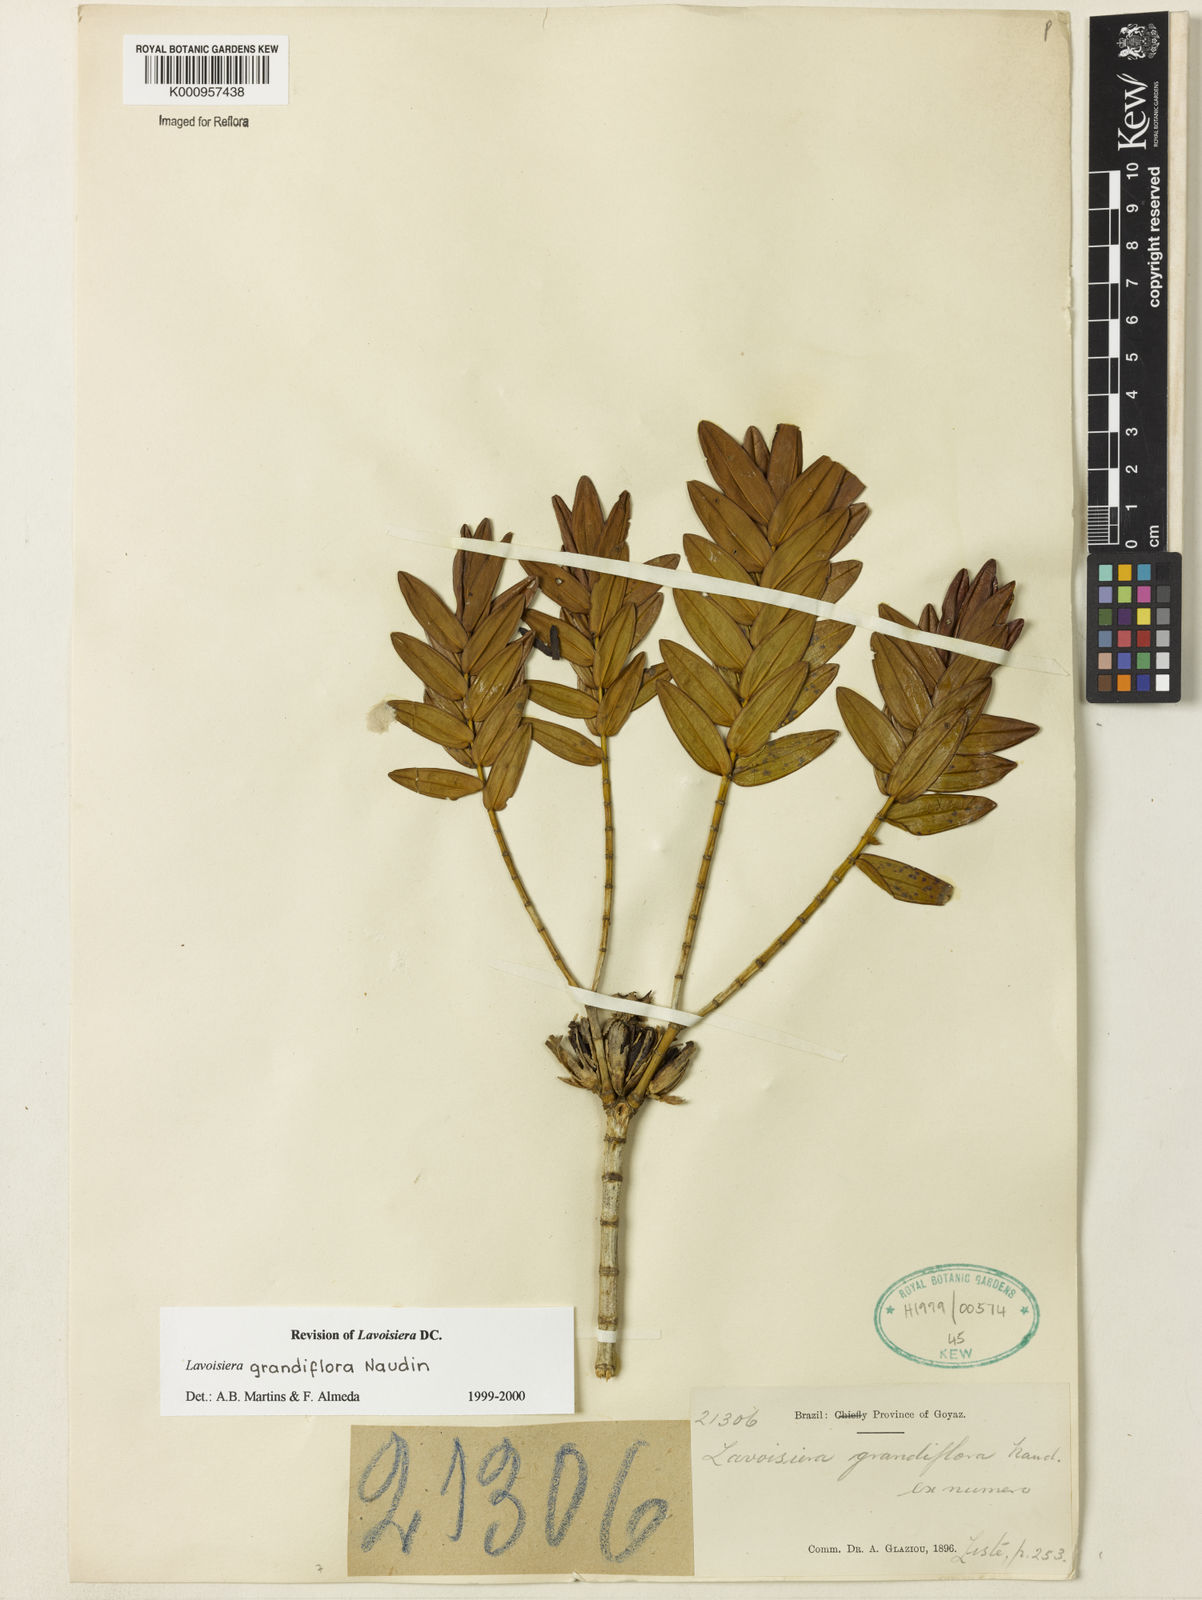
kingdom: Plantae
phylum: Tracheophyta
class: Magnoliopsida
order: Myrtales
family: Melastomataceae
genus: Microlicia
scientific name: Microlicia macrantha
